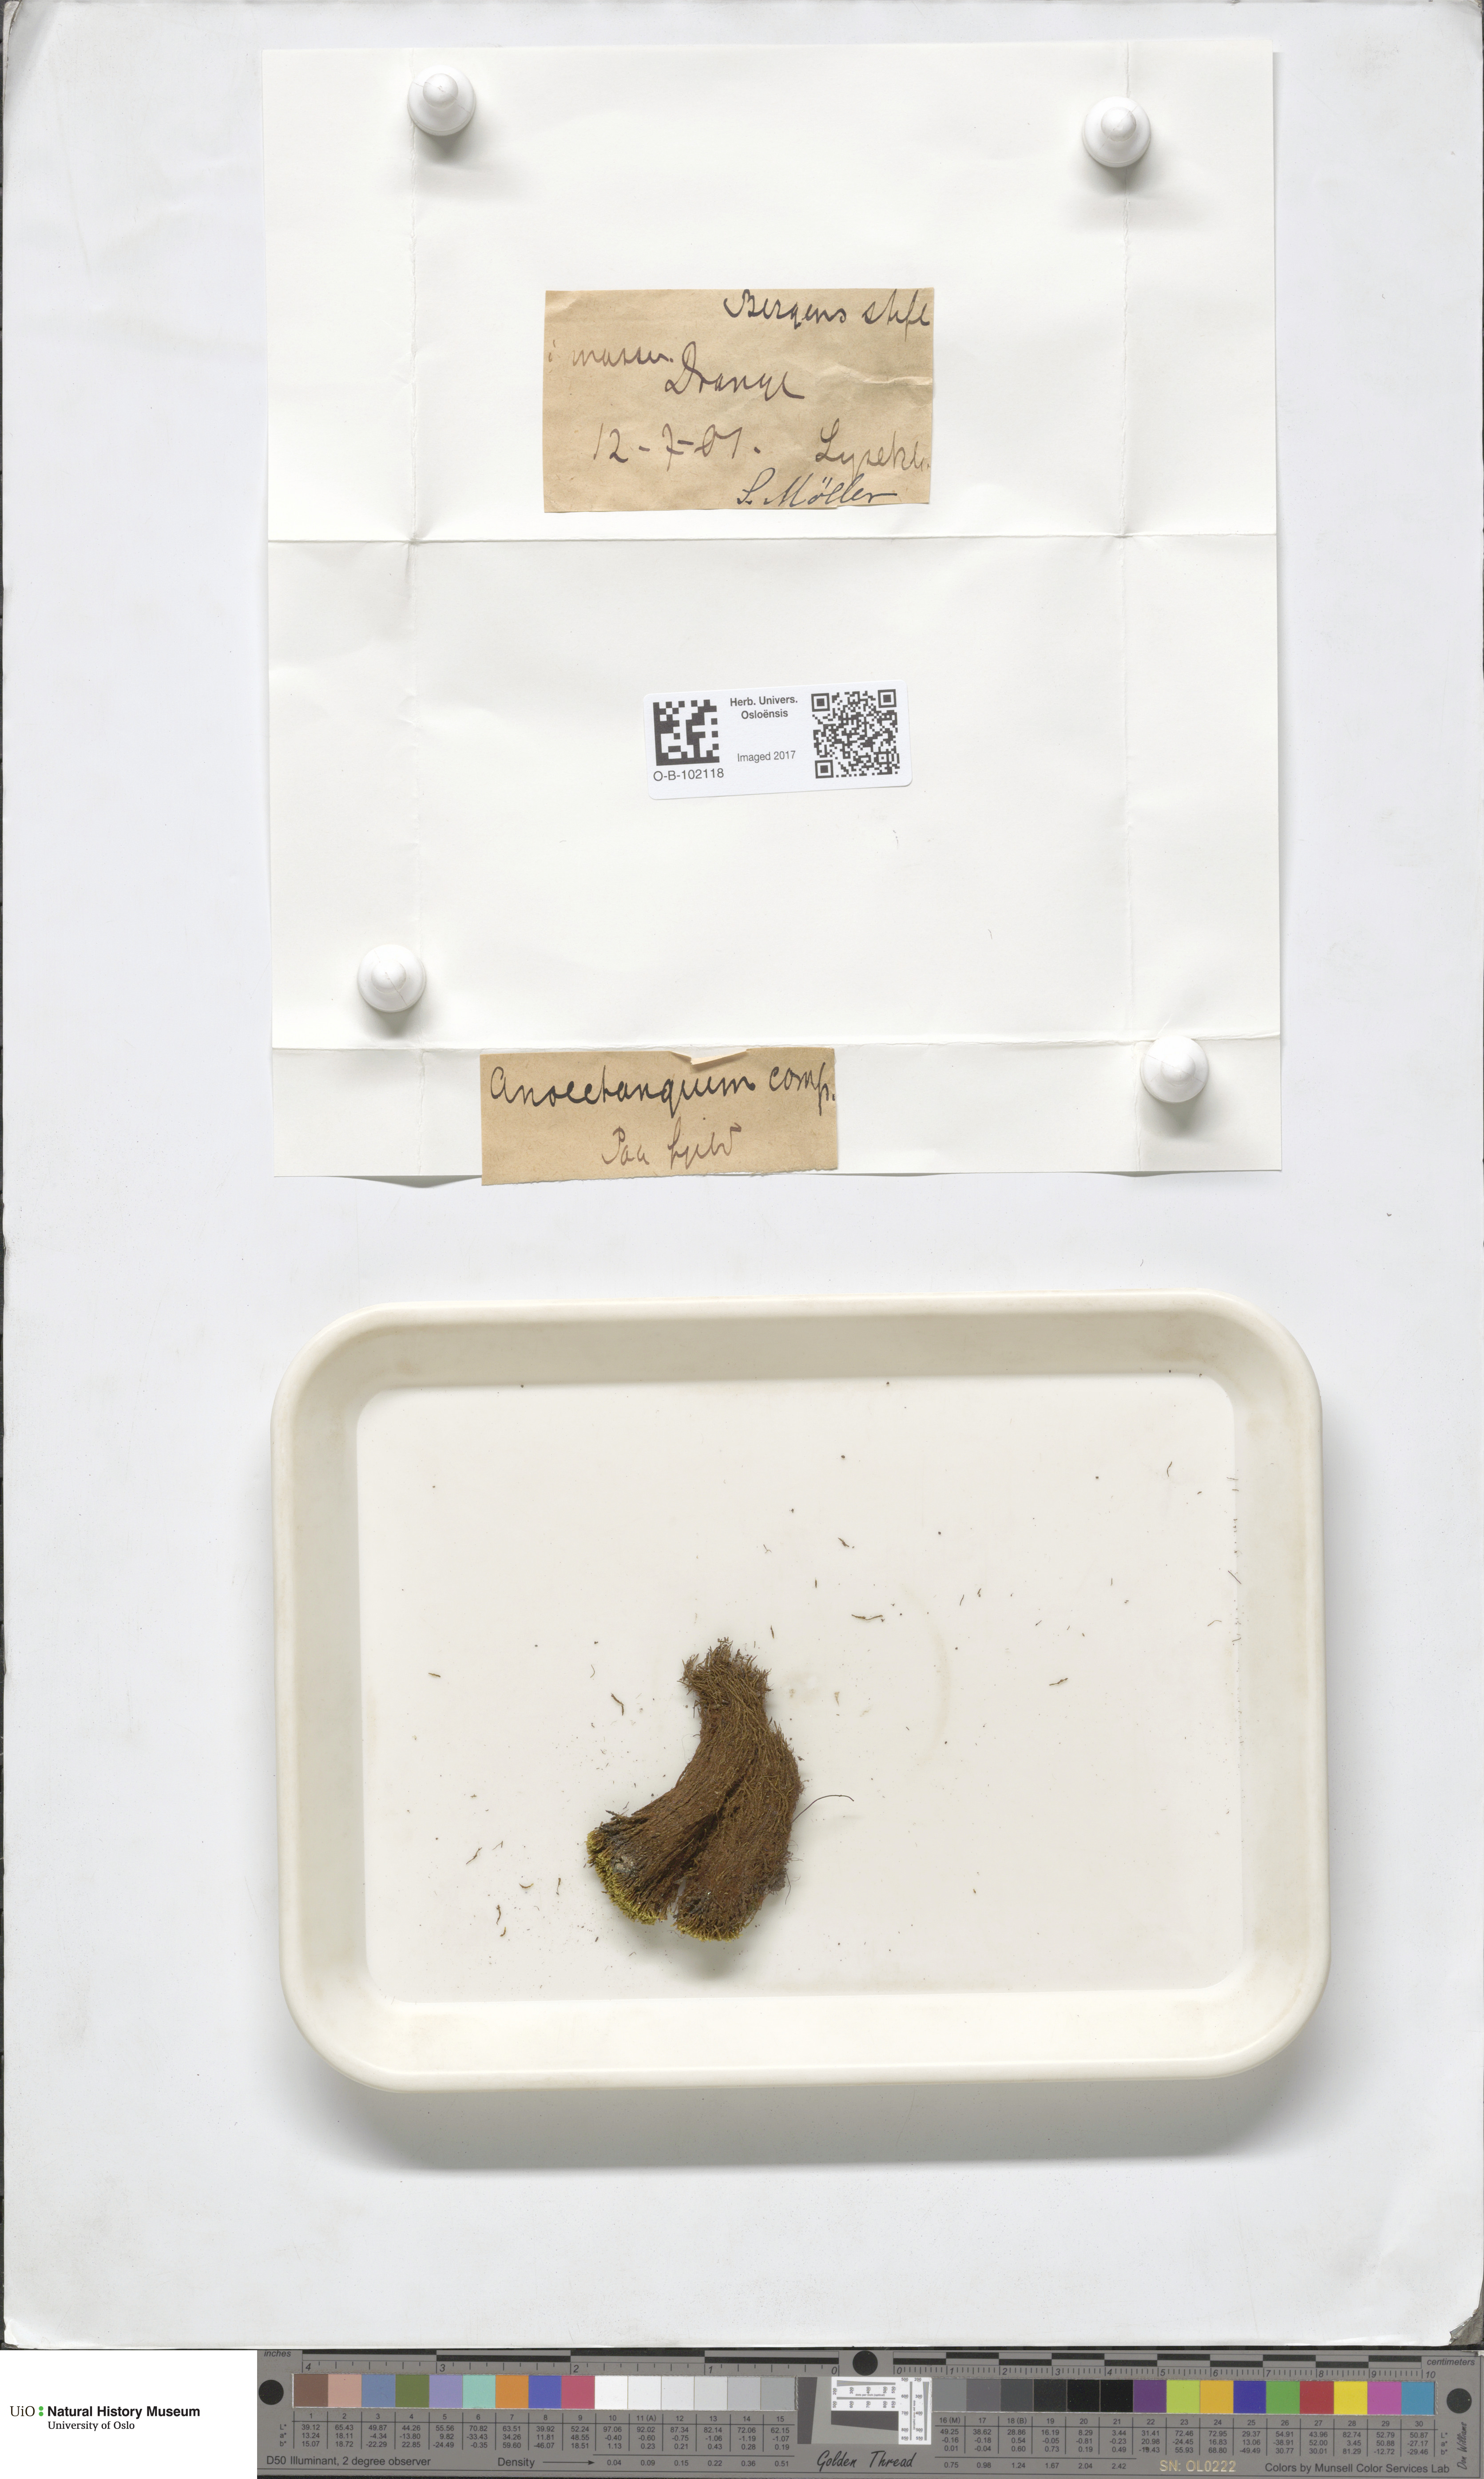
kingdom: Plantae
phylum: Bryophyta
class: Bryopsida
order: Pottiales
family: Pottiaceae
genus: Anoectangium
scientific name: Anoectangium aestivum
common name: Summer-moss
